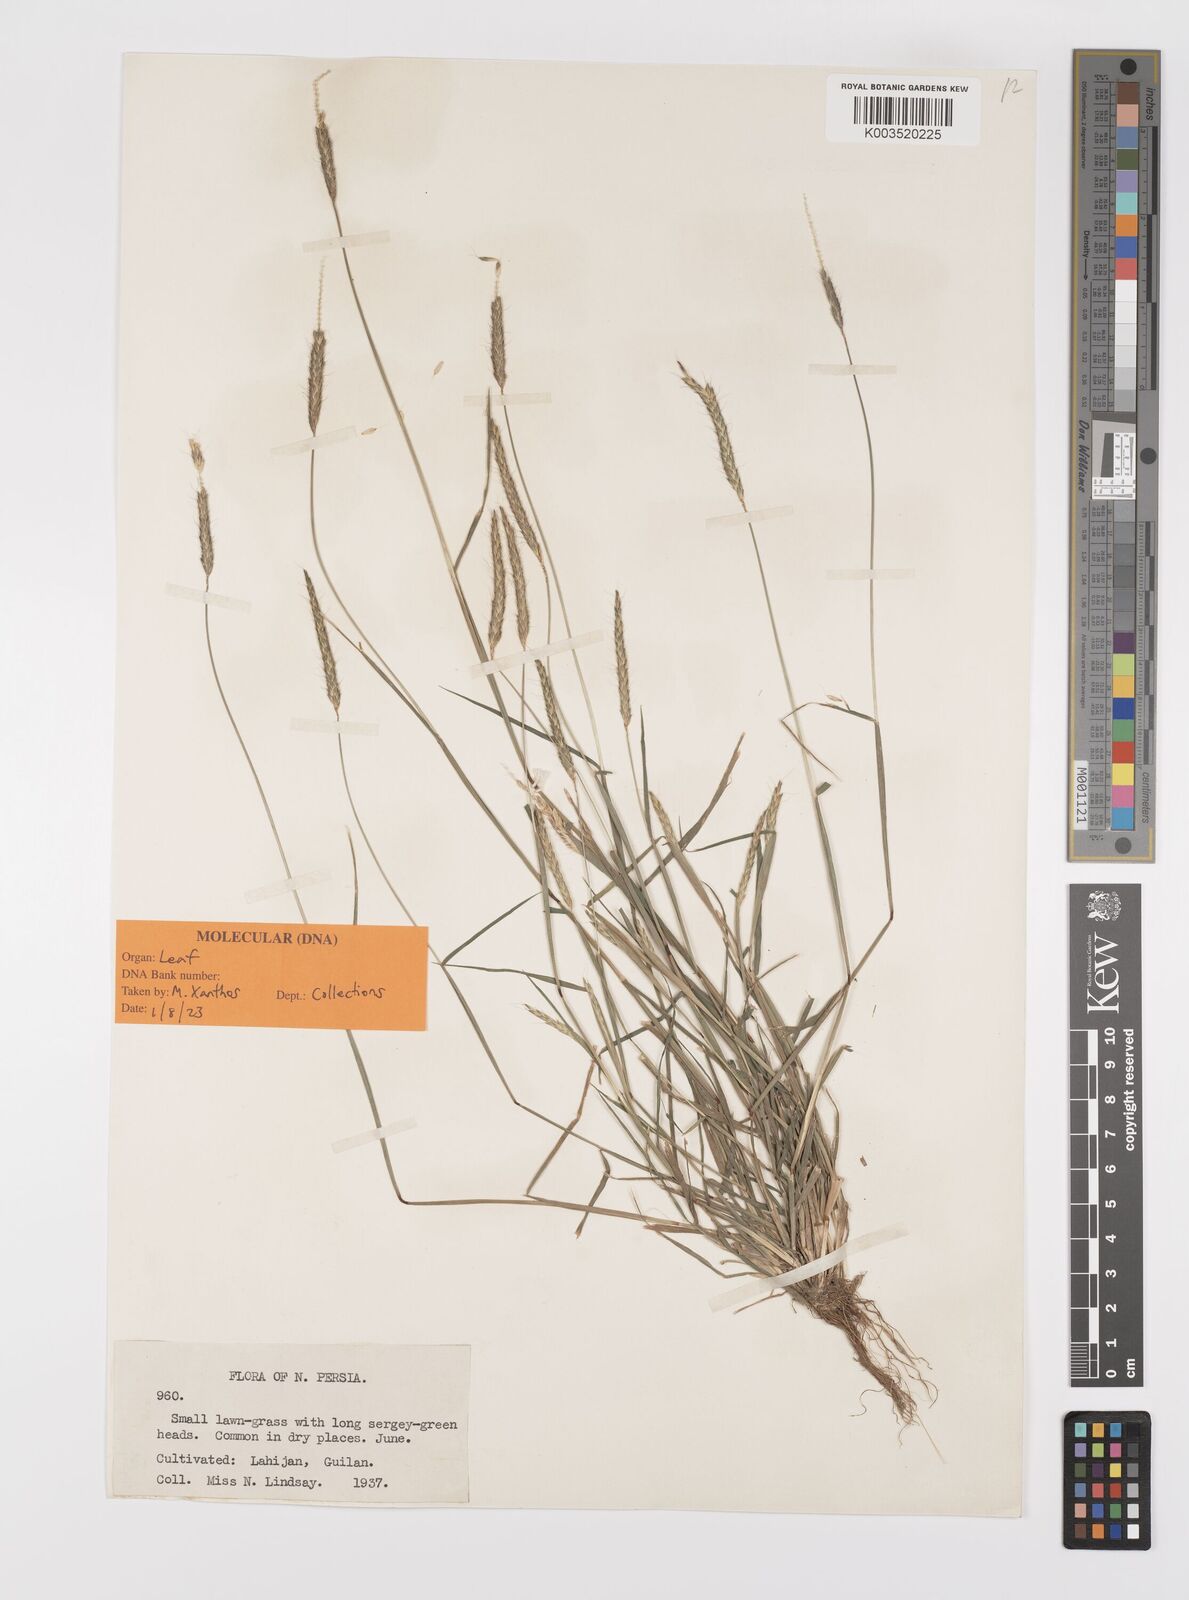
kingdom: Plantae
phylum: Tracheophyta
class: Liliopsida
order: Poales
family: Poaceae
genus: Alopecurus
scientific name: Alopecurus myosuroides
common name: Black-grass
